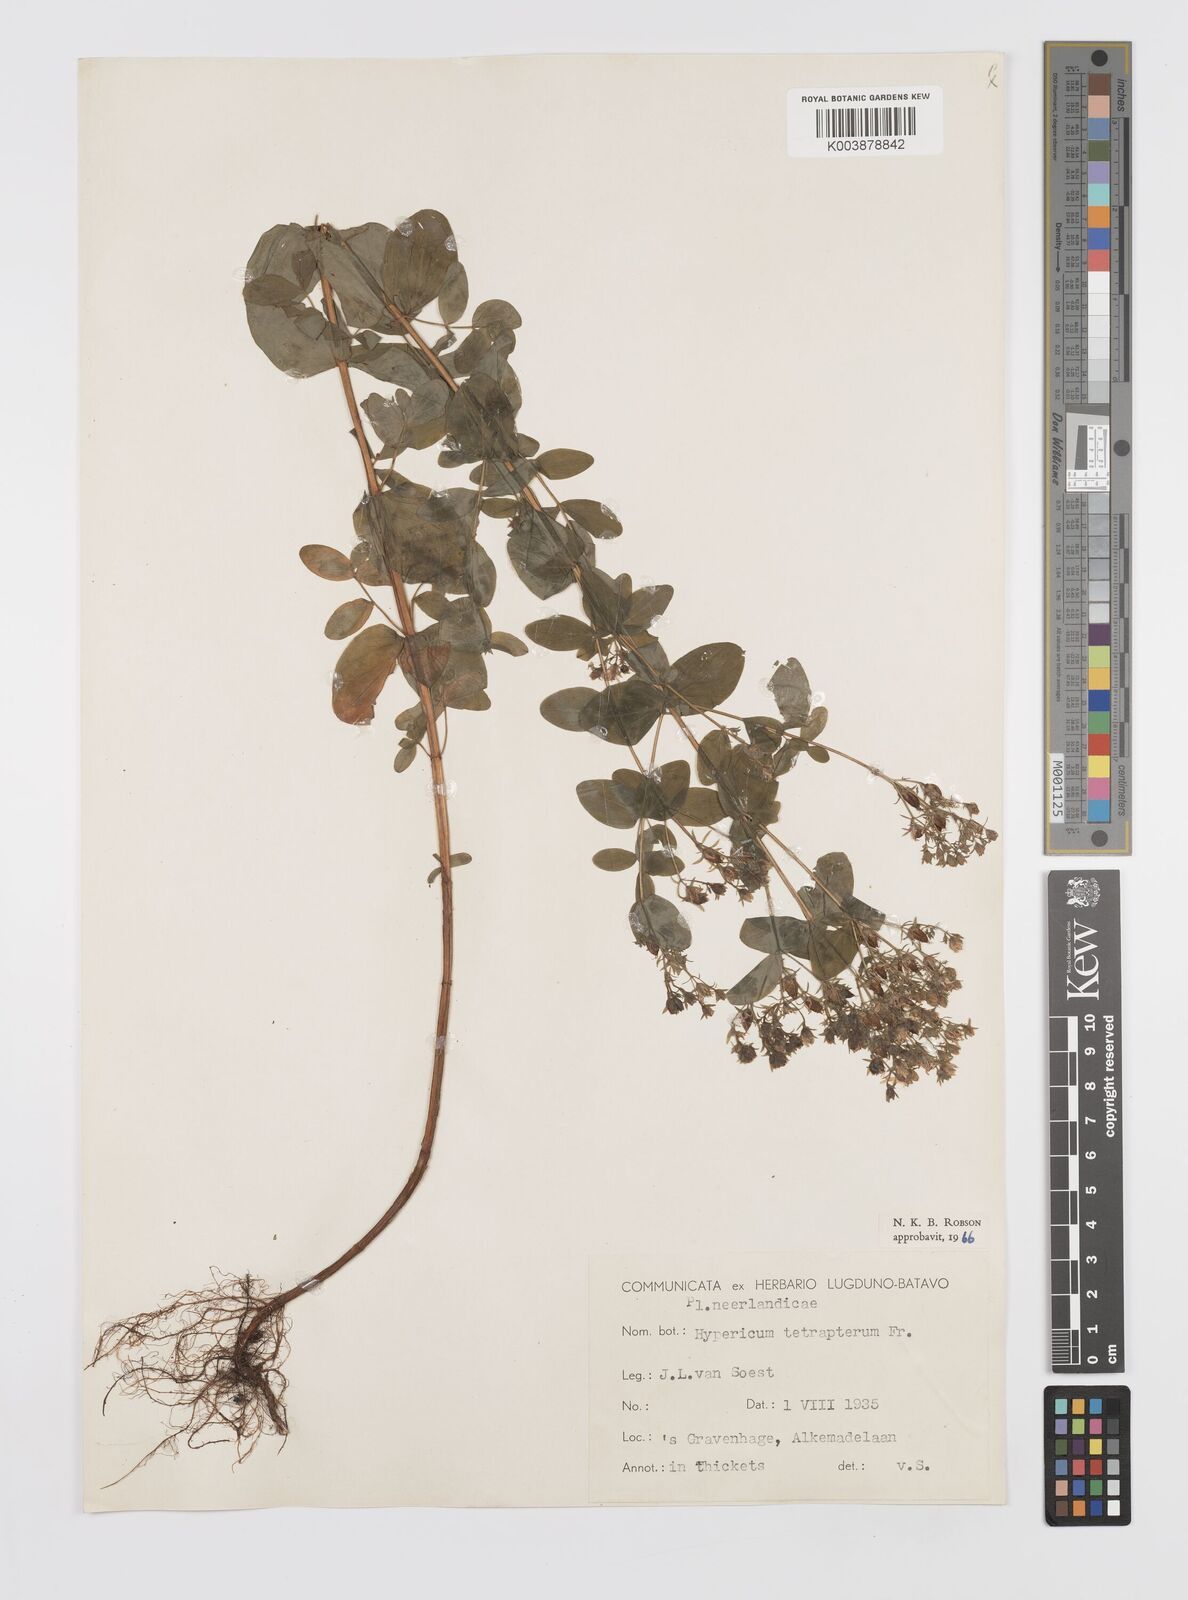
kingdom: Plantae
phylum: Tracheophyta
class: Magnoliopsida
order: Malpighiales
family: Hypericaceae
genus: Hypericum
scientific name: Hypericum tetrapterum
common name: Square-stalked st. john's-wort
